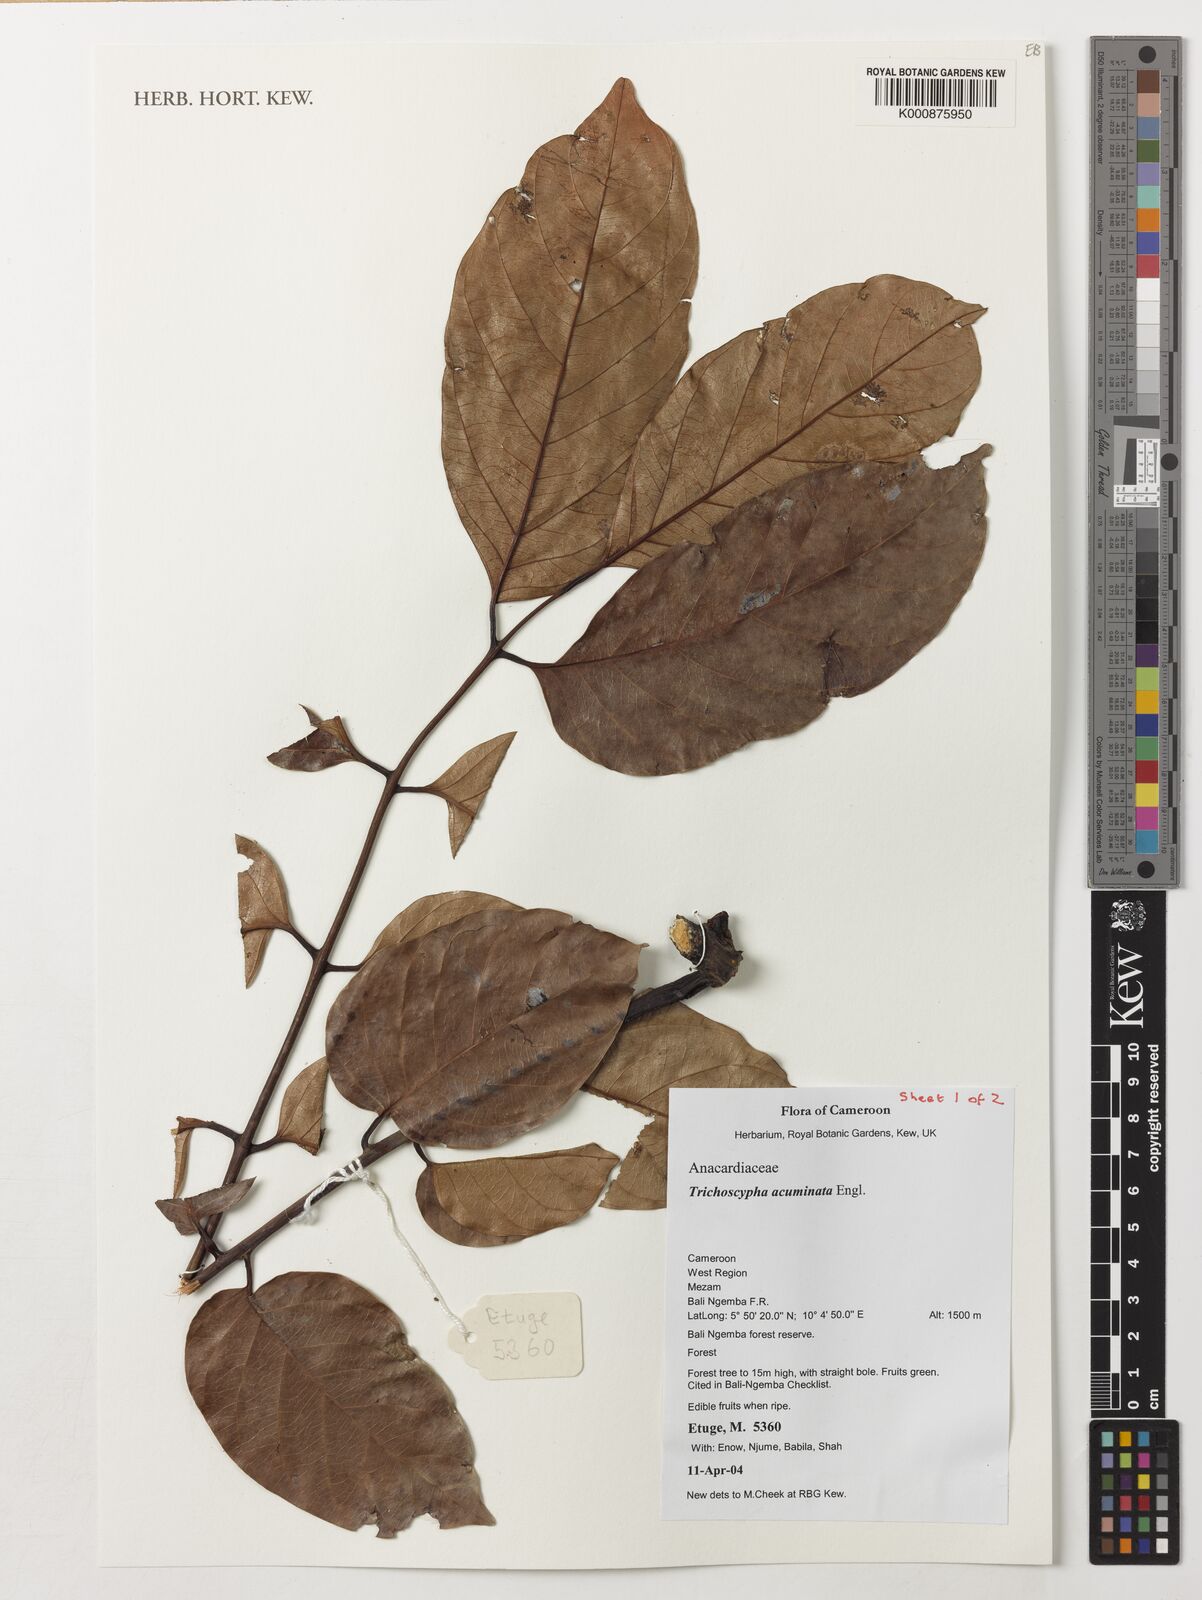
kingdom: Plantae
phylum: Tracheophyta
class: Magnoliopsida
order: Sapindales
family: Anacardiaceae
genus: Trichoscypha
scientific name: Trichoscypha acuminata
